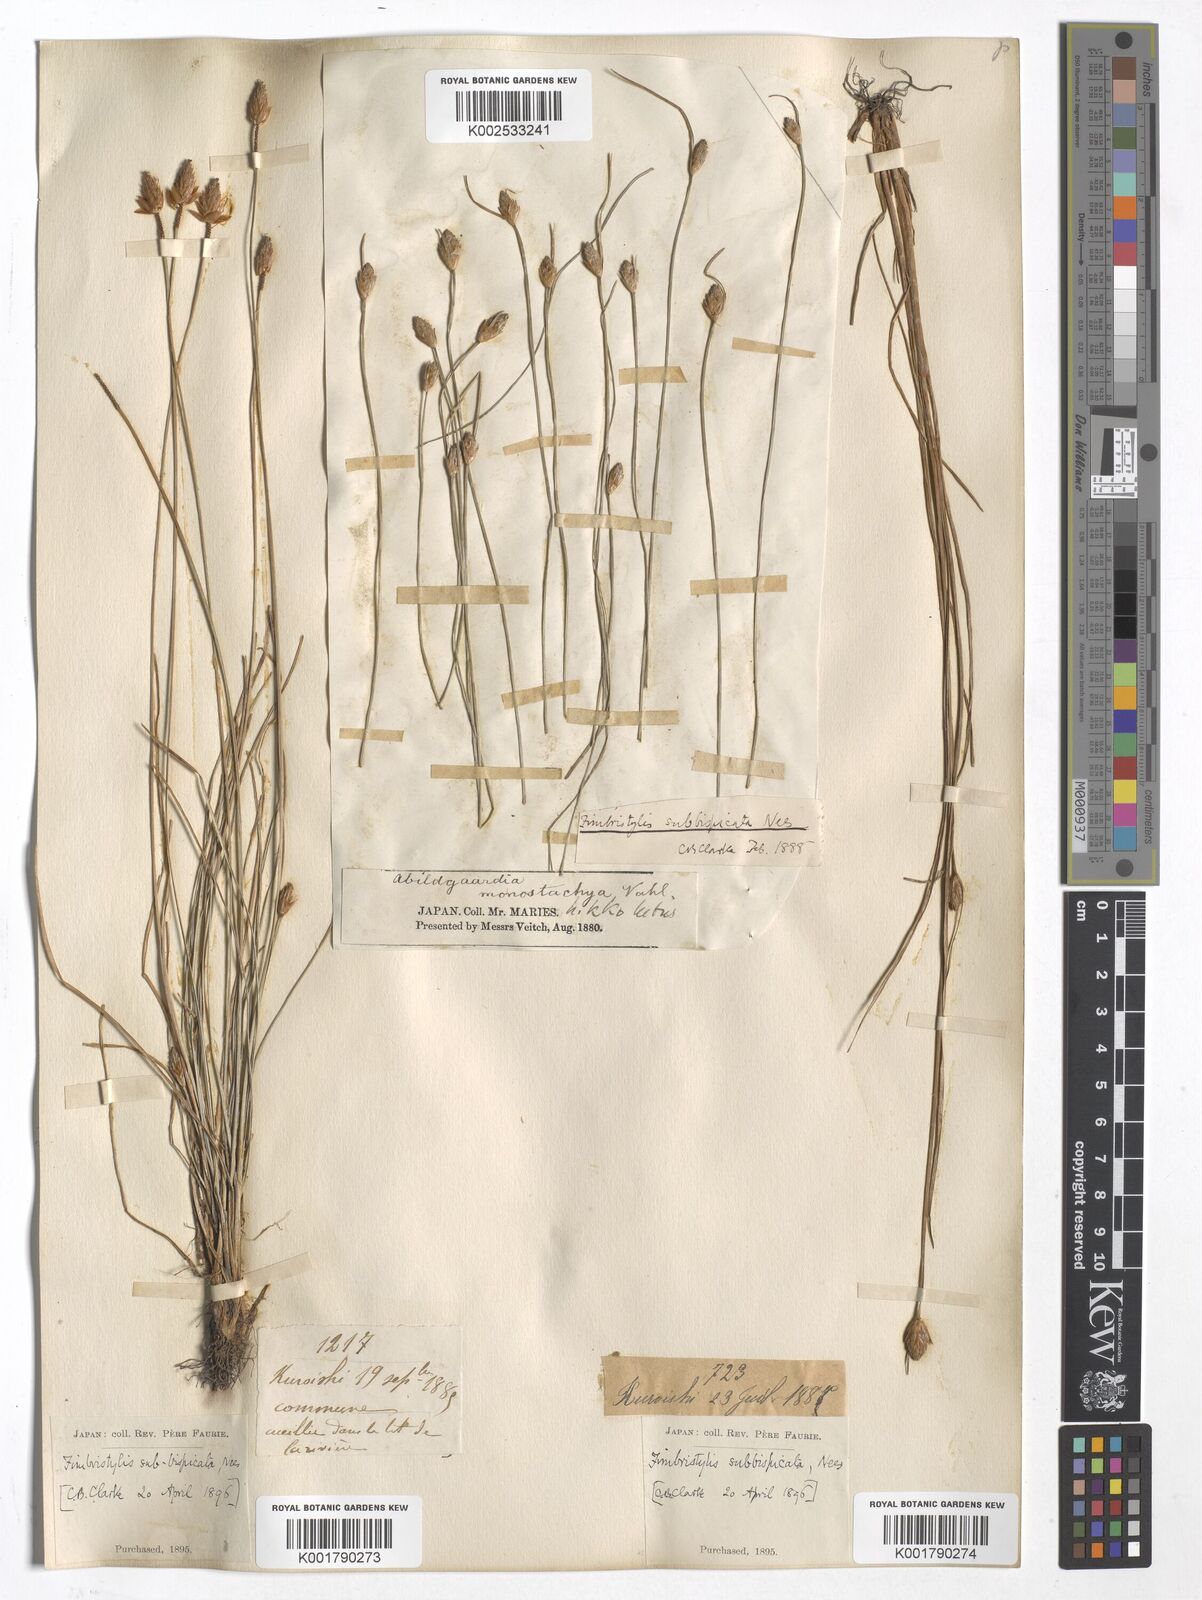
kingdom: Plantae
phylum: Tracheophyta
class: Liliopsida
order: Poales
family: Cyperaceae
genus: Fimbristylis
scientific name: Fimbristylis tristachya
